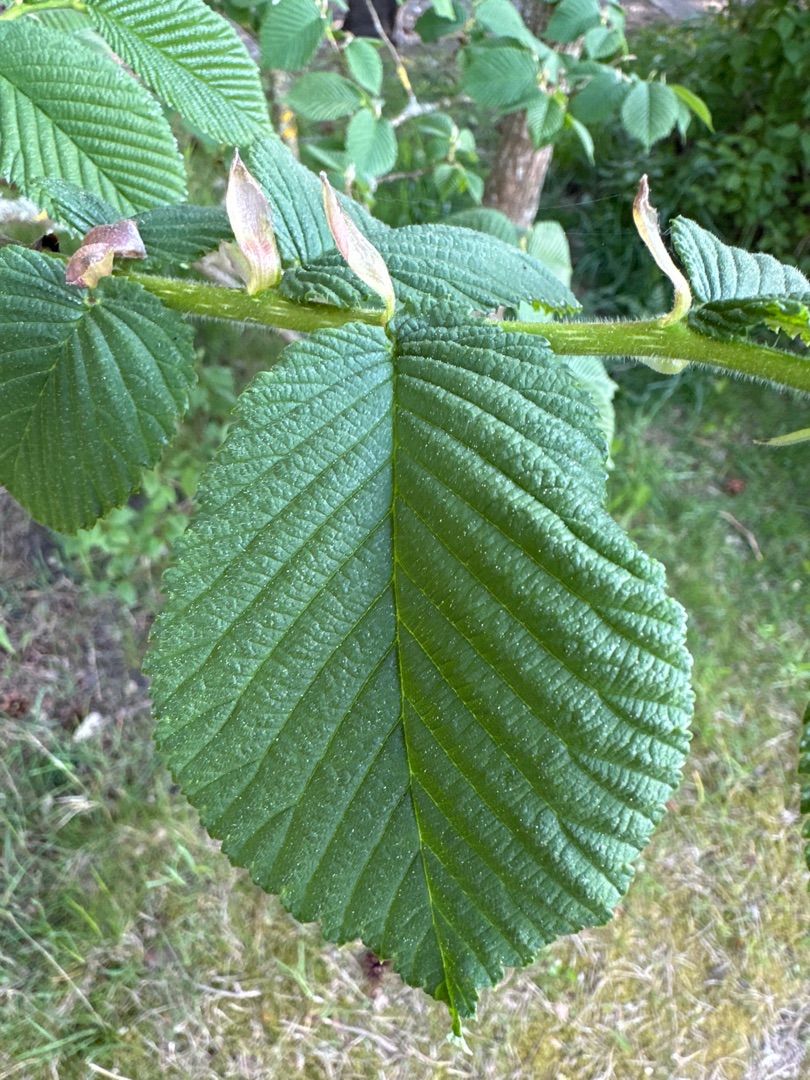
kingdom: Plantae
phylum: Tracheophyta
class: Magnoliopsida
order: Rosales
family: Ulmaceae
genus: Ulmus
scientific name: Ulmus glabra
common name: Skov-elm/storbladet elm
